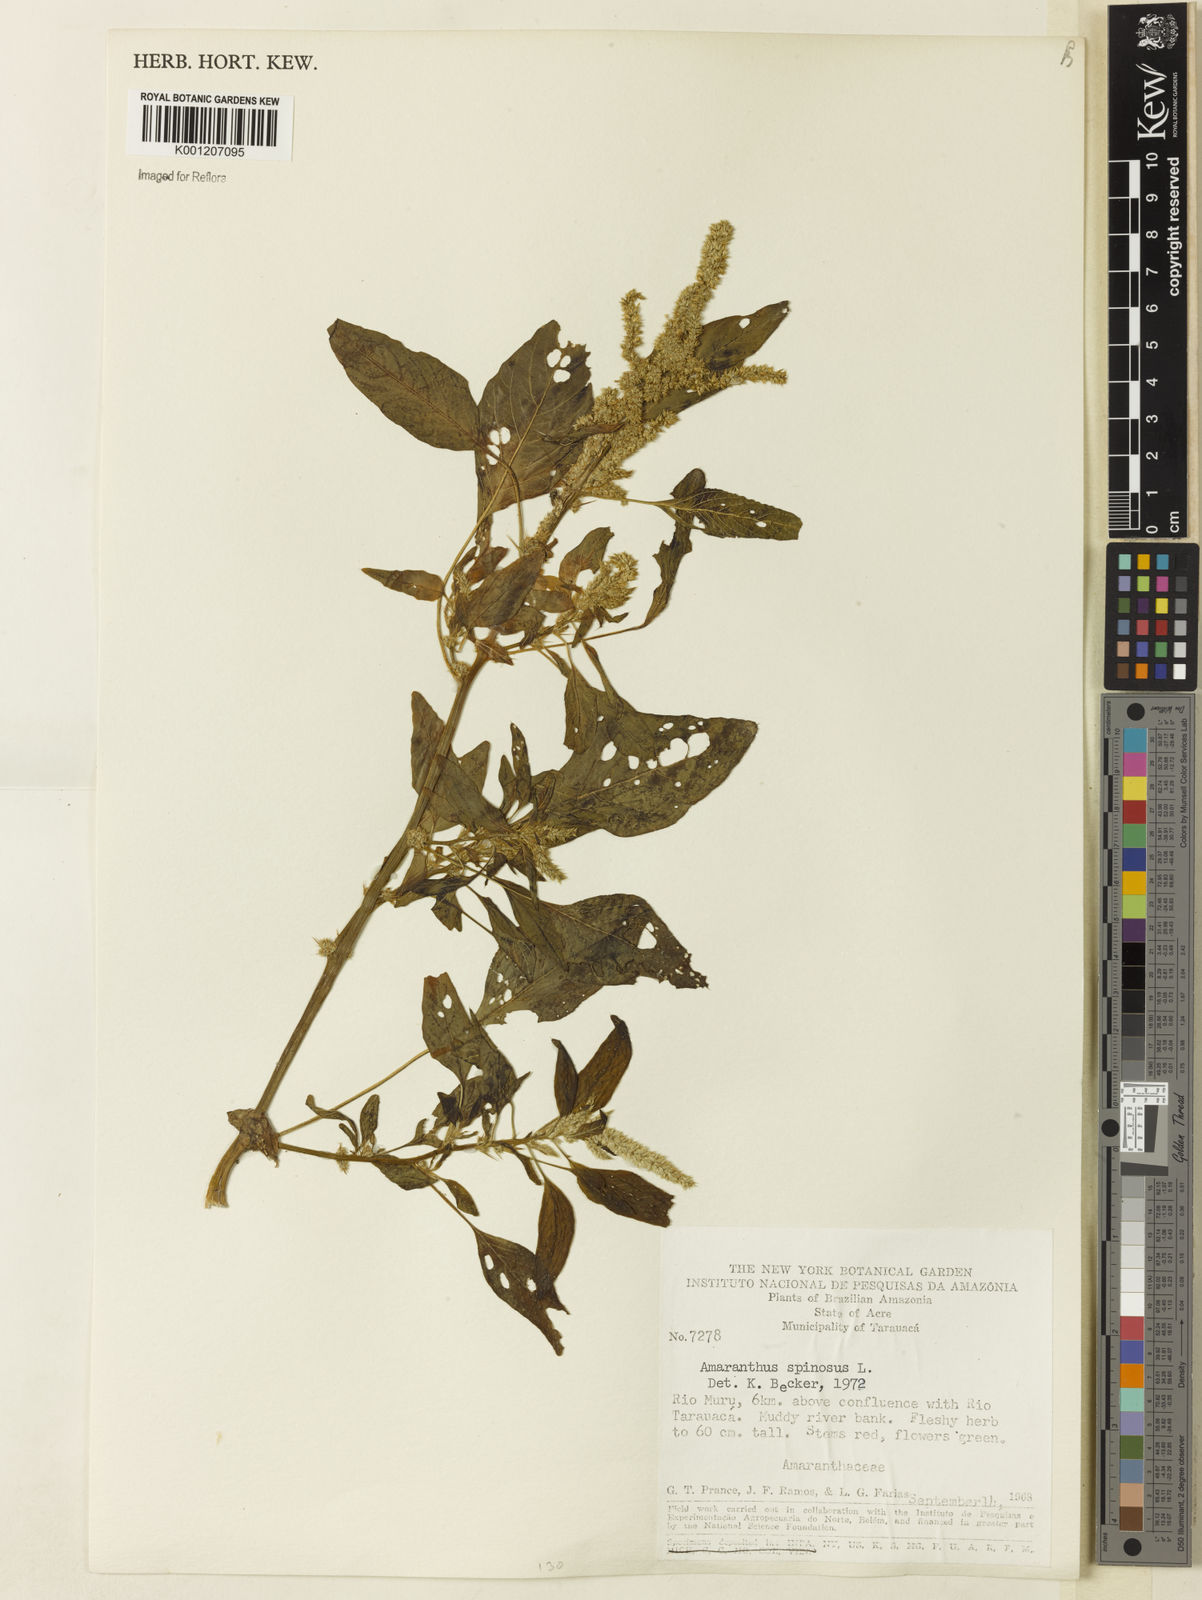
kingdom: Plantae
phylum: Tracheophyta
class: Magnoliopsida
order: Caryophyllales
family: Amaranthaceae
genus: Amaranthus
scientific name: Amaranthus spinosus
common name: Spiny amaranth
